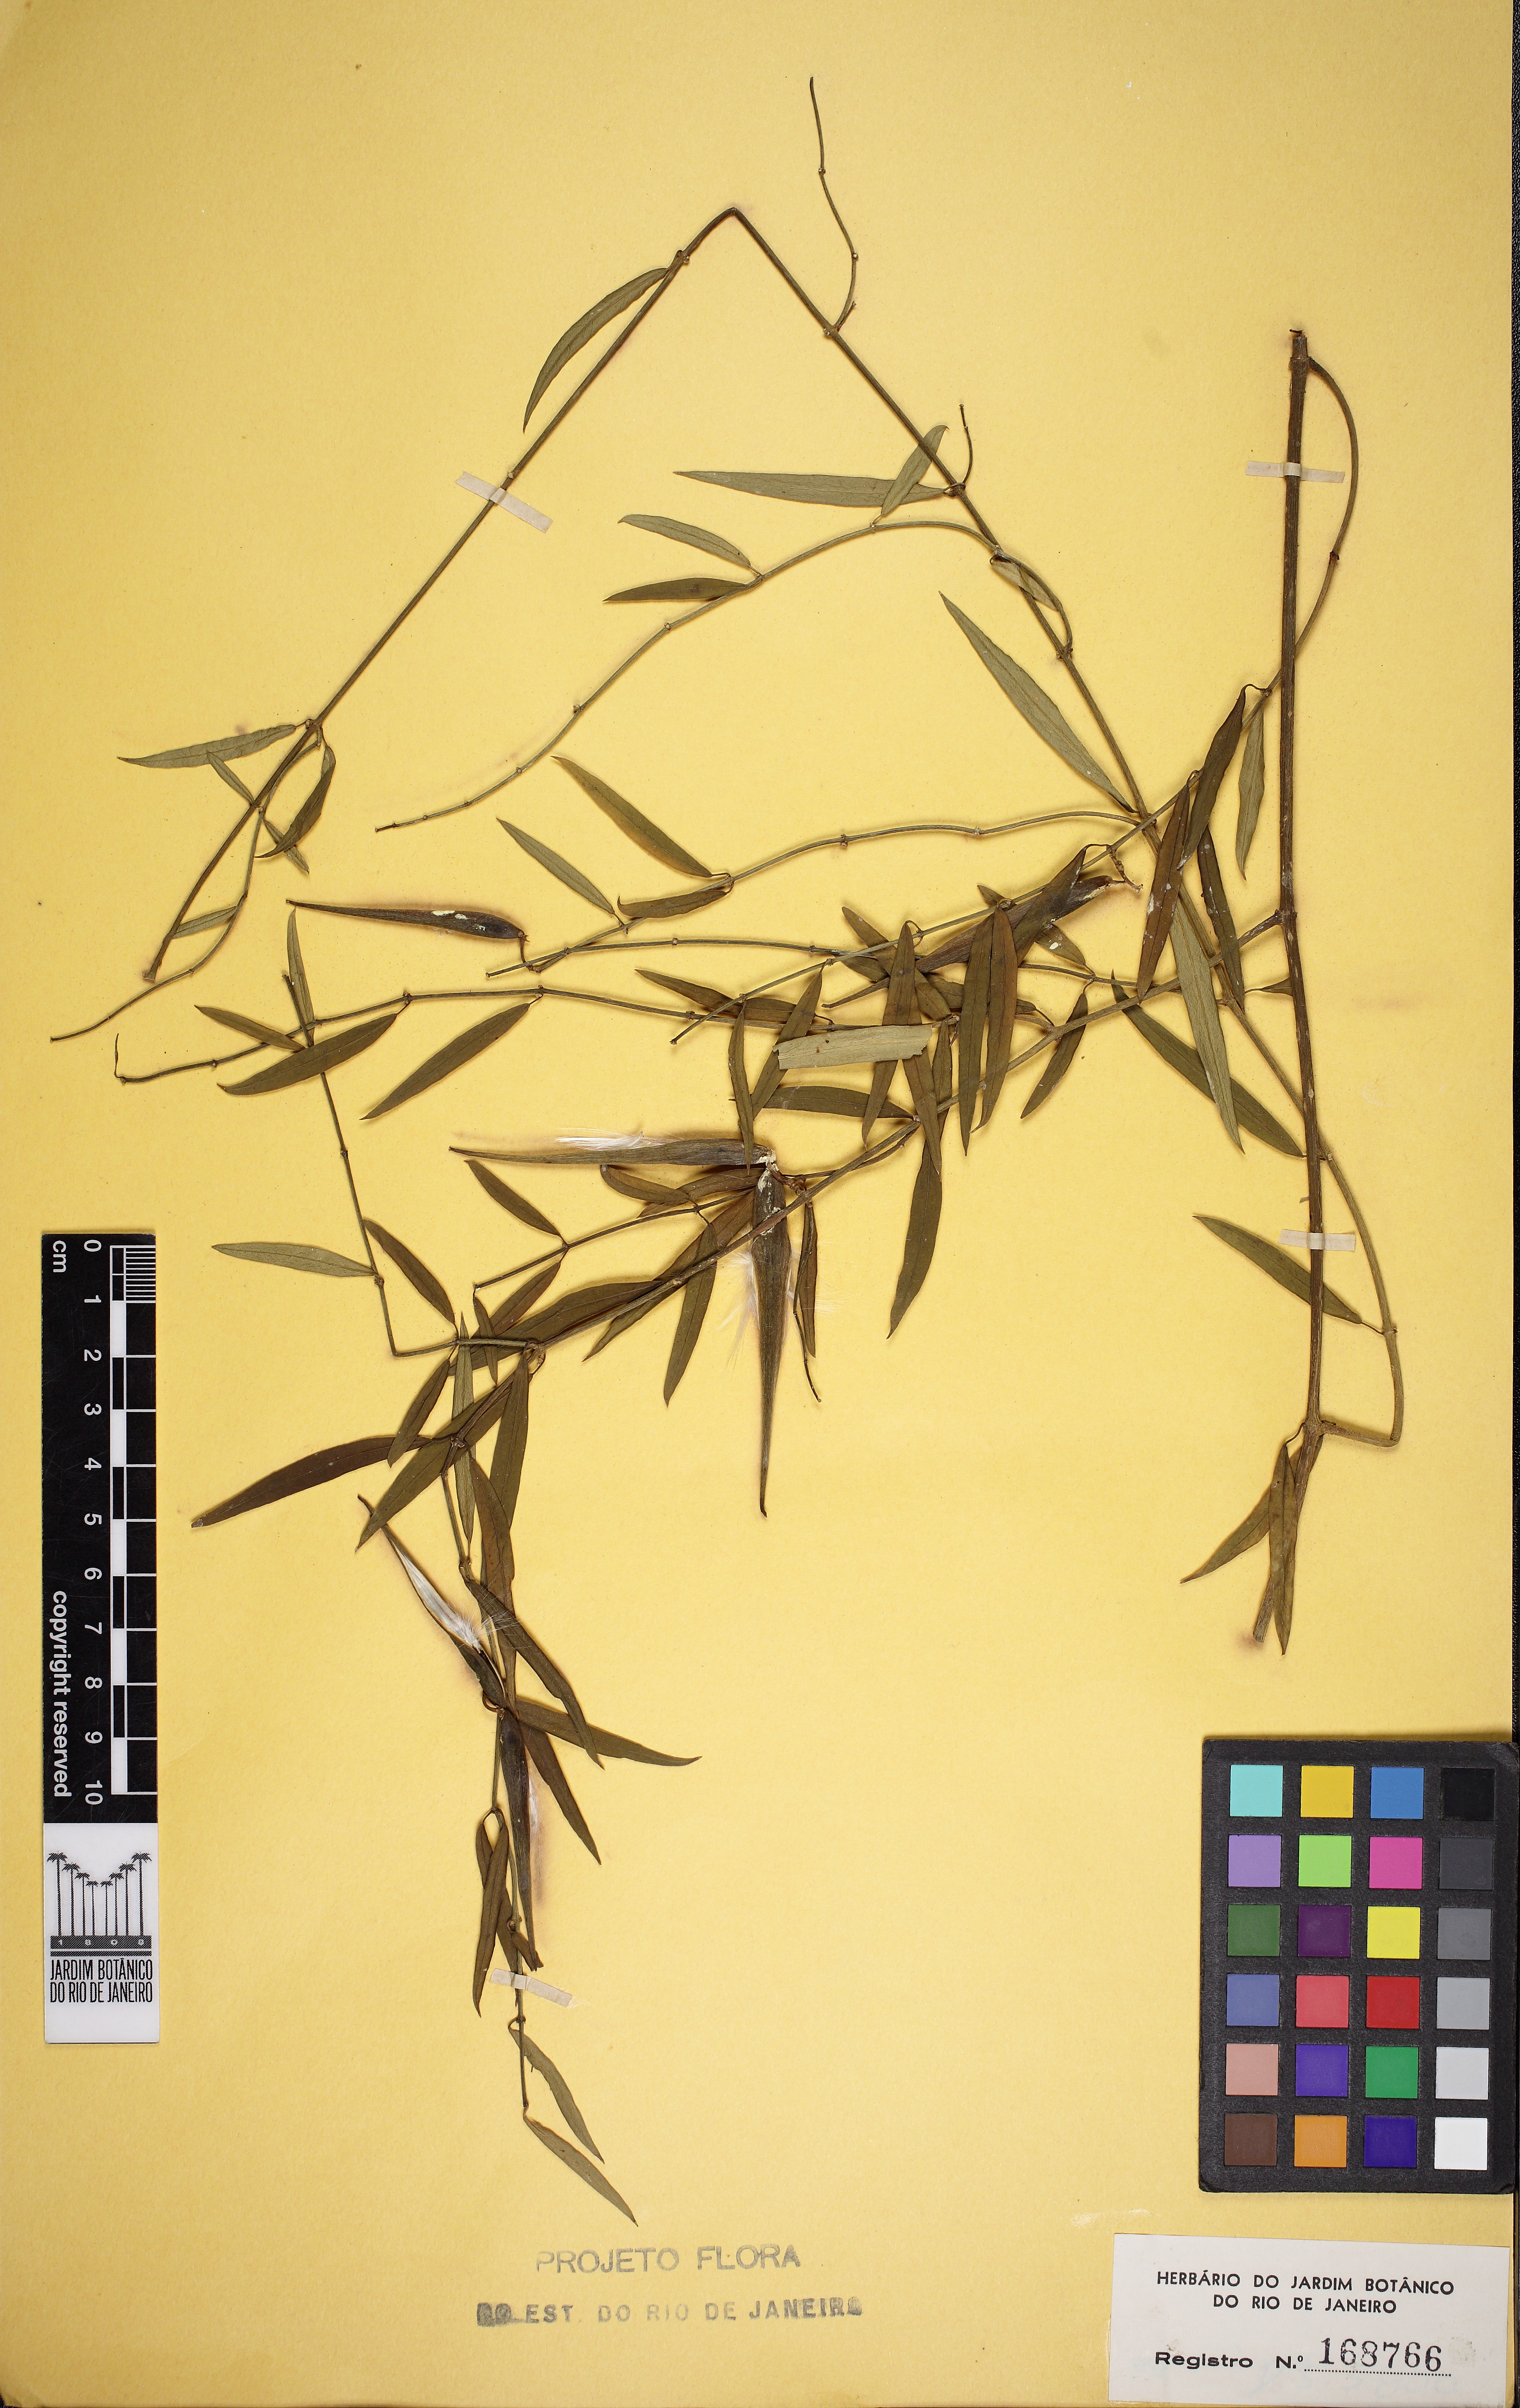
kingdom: Plantae
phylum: Tracheophyta
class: Magnoliopsida
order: Gentianales
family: Apocynaceae
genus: Orthosia
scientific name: Orthosia itatiaiensis
